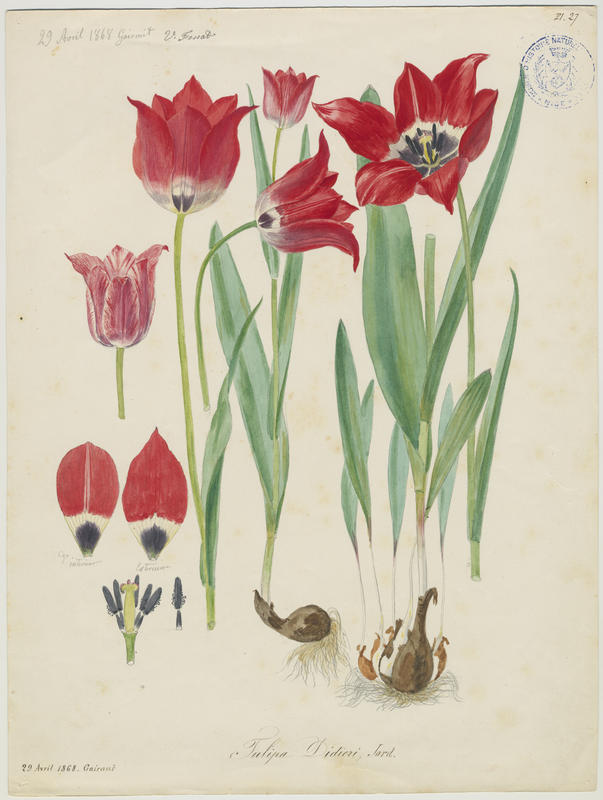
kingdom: Plantae
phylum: Tracheophyta
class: Liliopsida
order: Liliales
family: Liliaceae
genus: Tulipa
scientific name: Tulipa gesneriana
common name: Garden tulip
